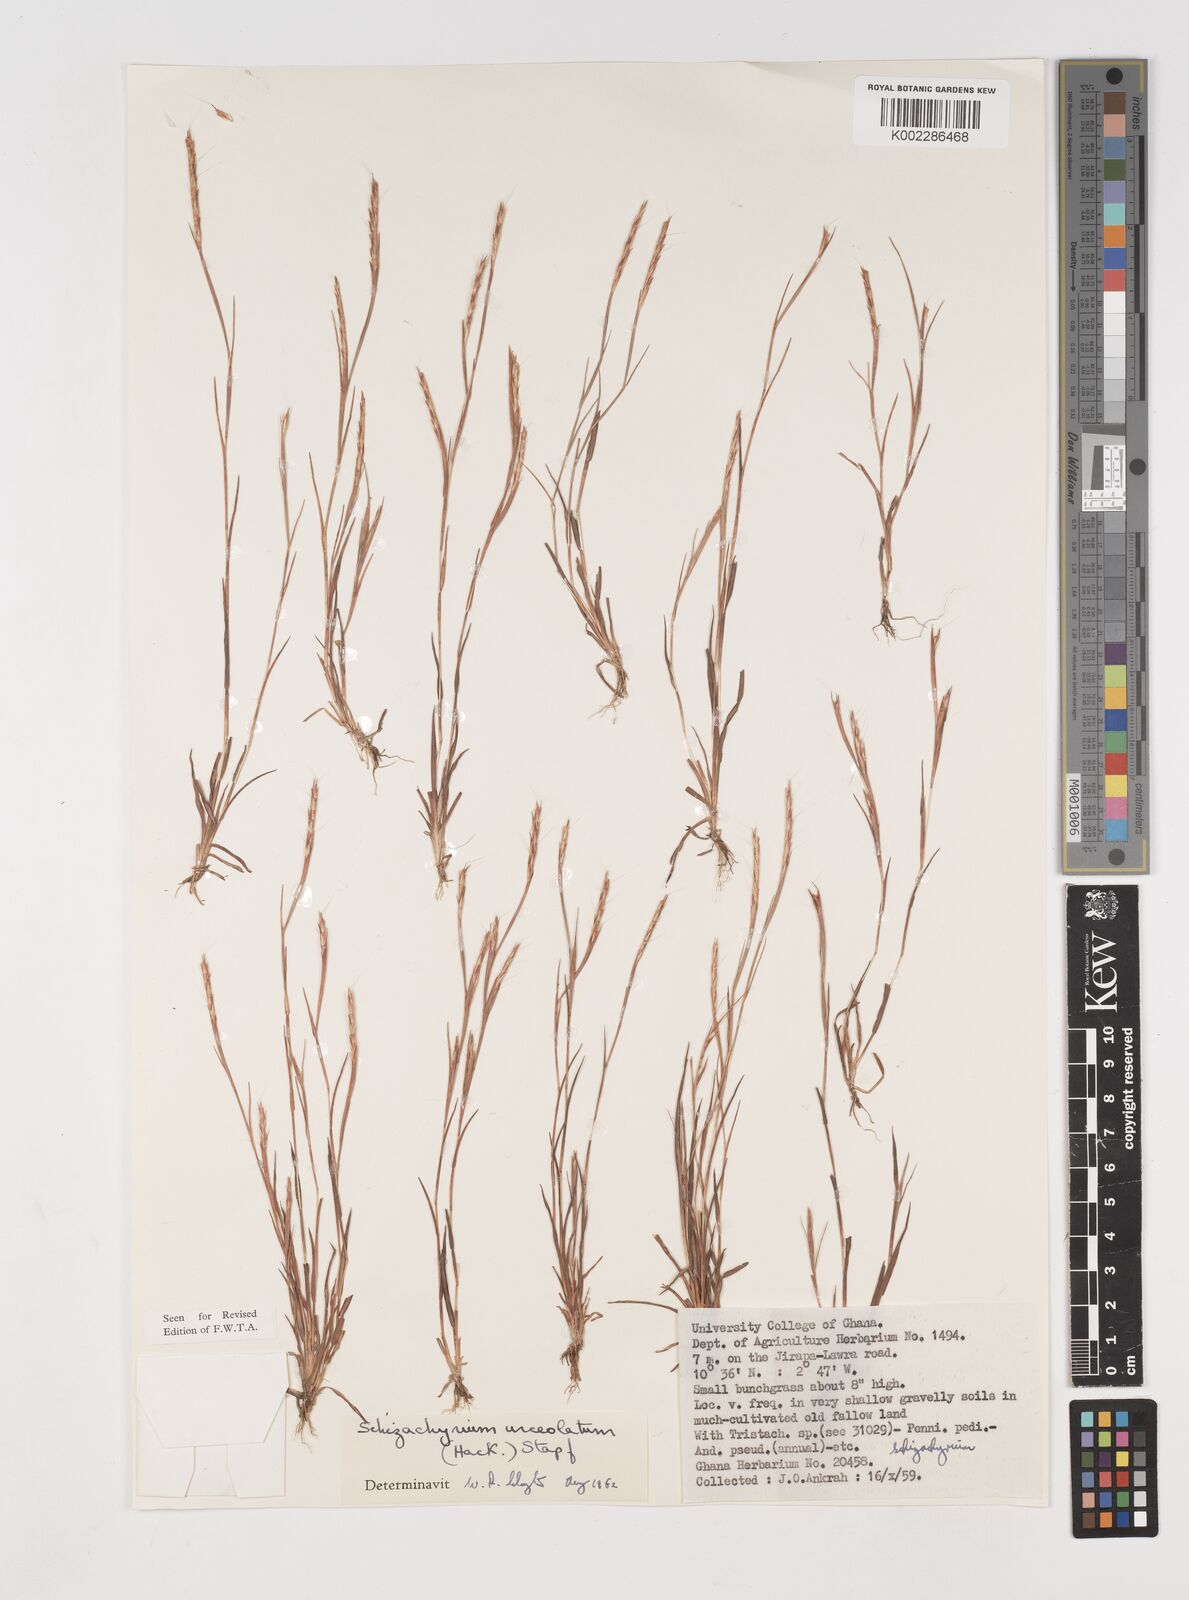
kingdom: Plantae
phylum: Tracheophyta
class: Liliopsida
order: Poales
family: Poaceae
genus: Schizachyrium
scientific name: Schizachyrium urceolatum
